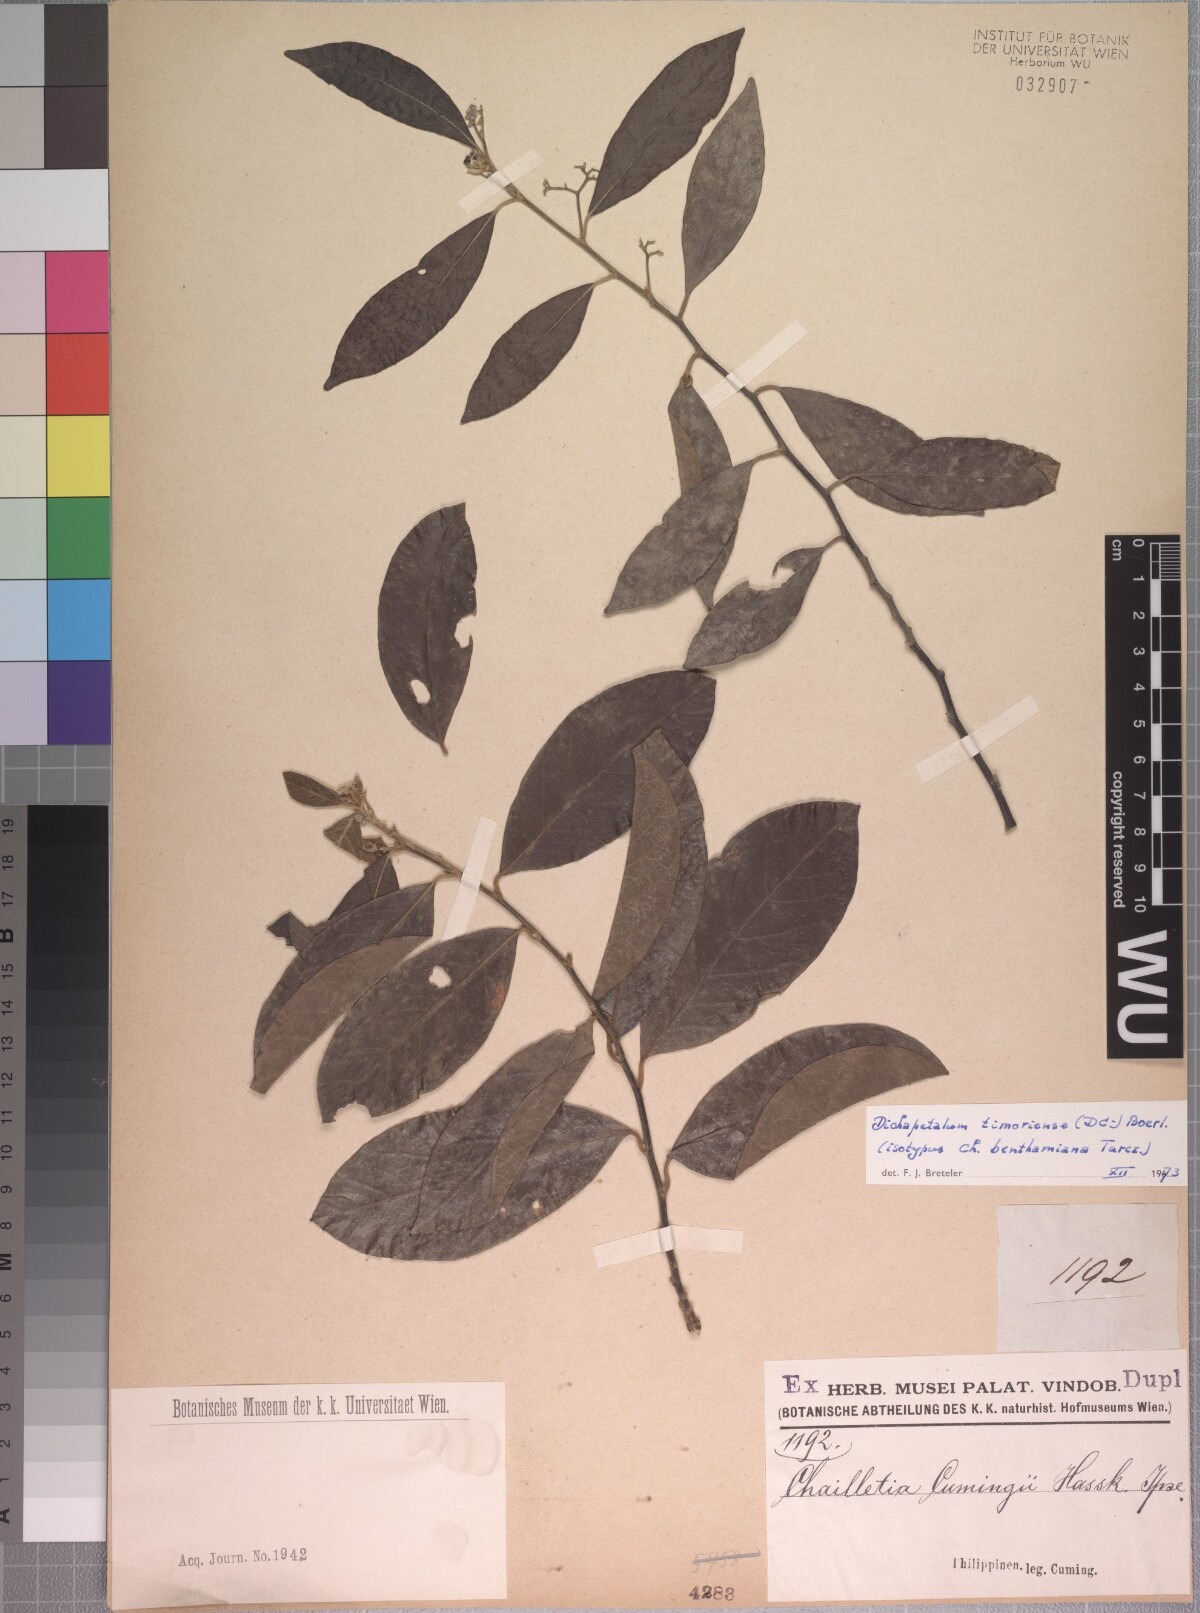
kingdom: Plantae
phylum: Tracheophyta
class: Magnoliopsida
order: Malpighiales
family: Dichapetalaceae
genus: Dichapetalum
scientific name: Dichapetalum timoriense
